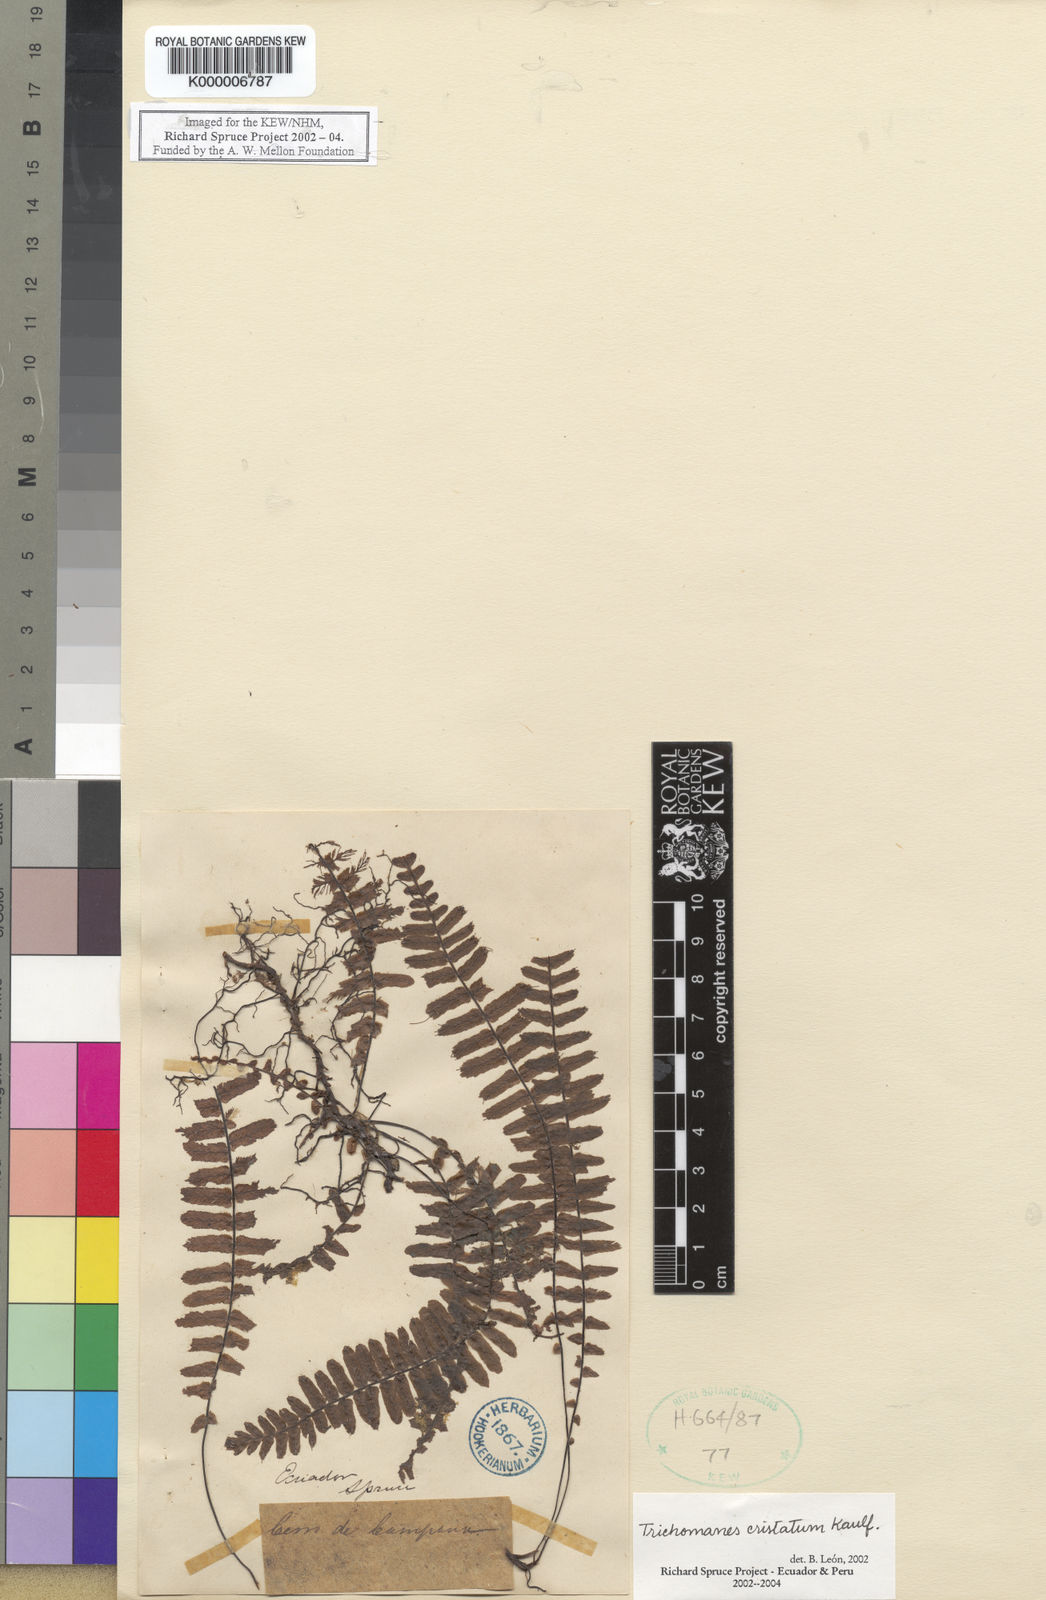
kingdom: Plantae
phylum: Tracheophyta
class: Polypodiopsida
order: Hymenophyllales
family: Hymenophyllaceae
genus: Trichomanes
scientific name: Trichomanes cristatum
